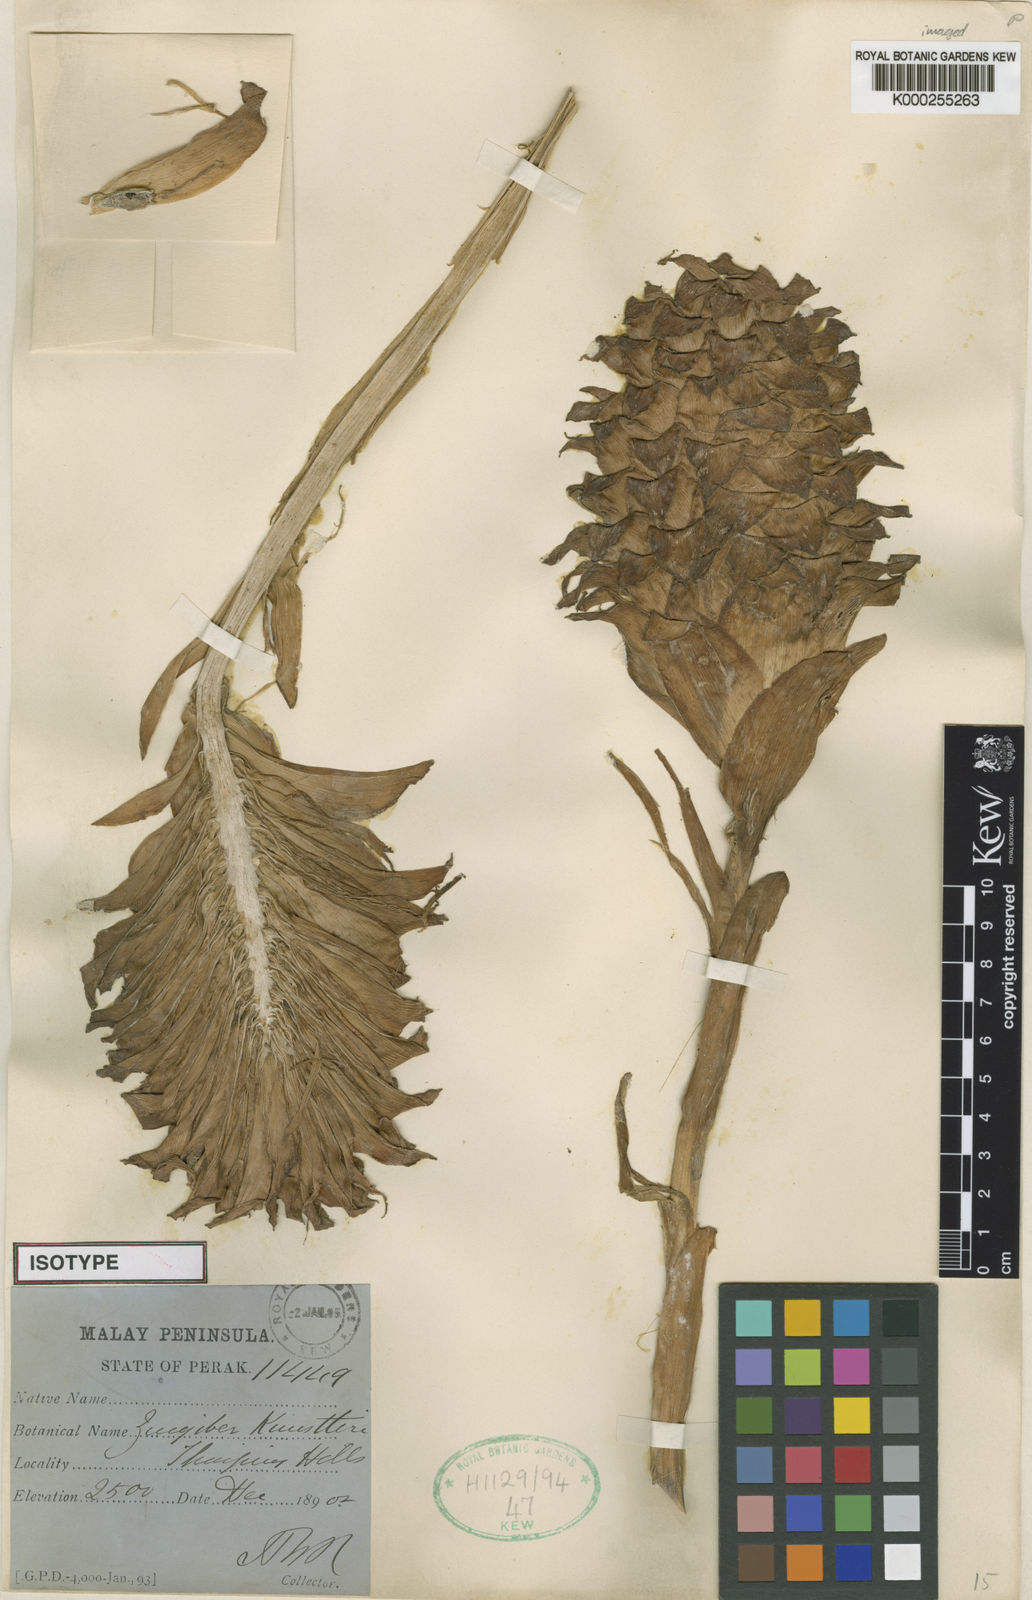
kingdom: Plantae
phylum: Tracheophyta
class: Liliopsida
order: Zingiberales
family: Zingiberaceae
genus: Zingiber
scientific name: Zingiber kunstleri
